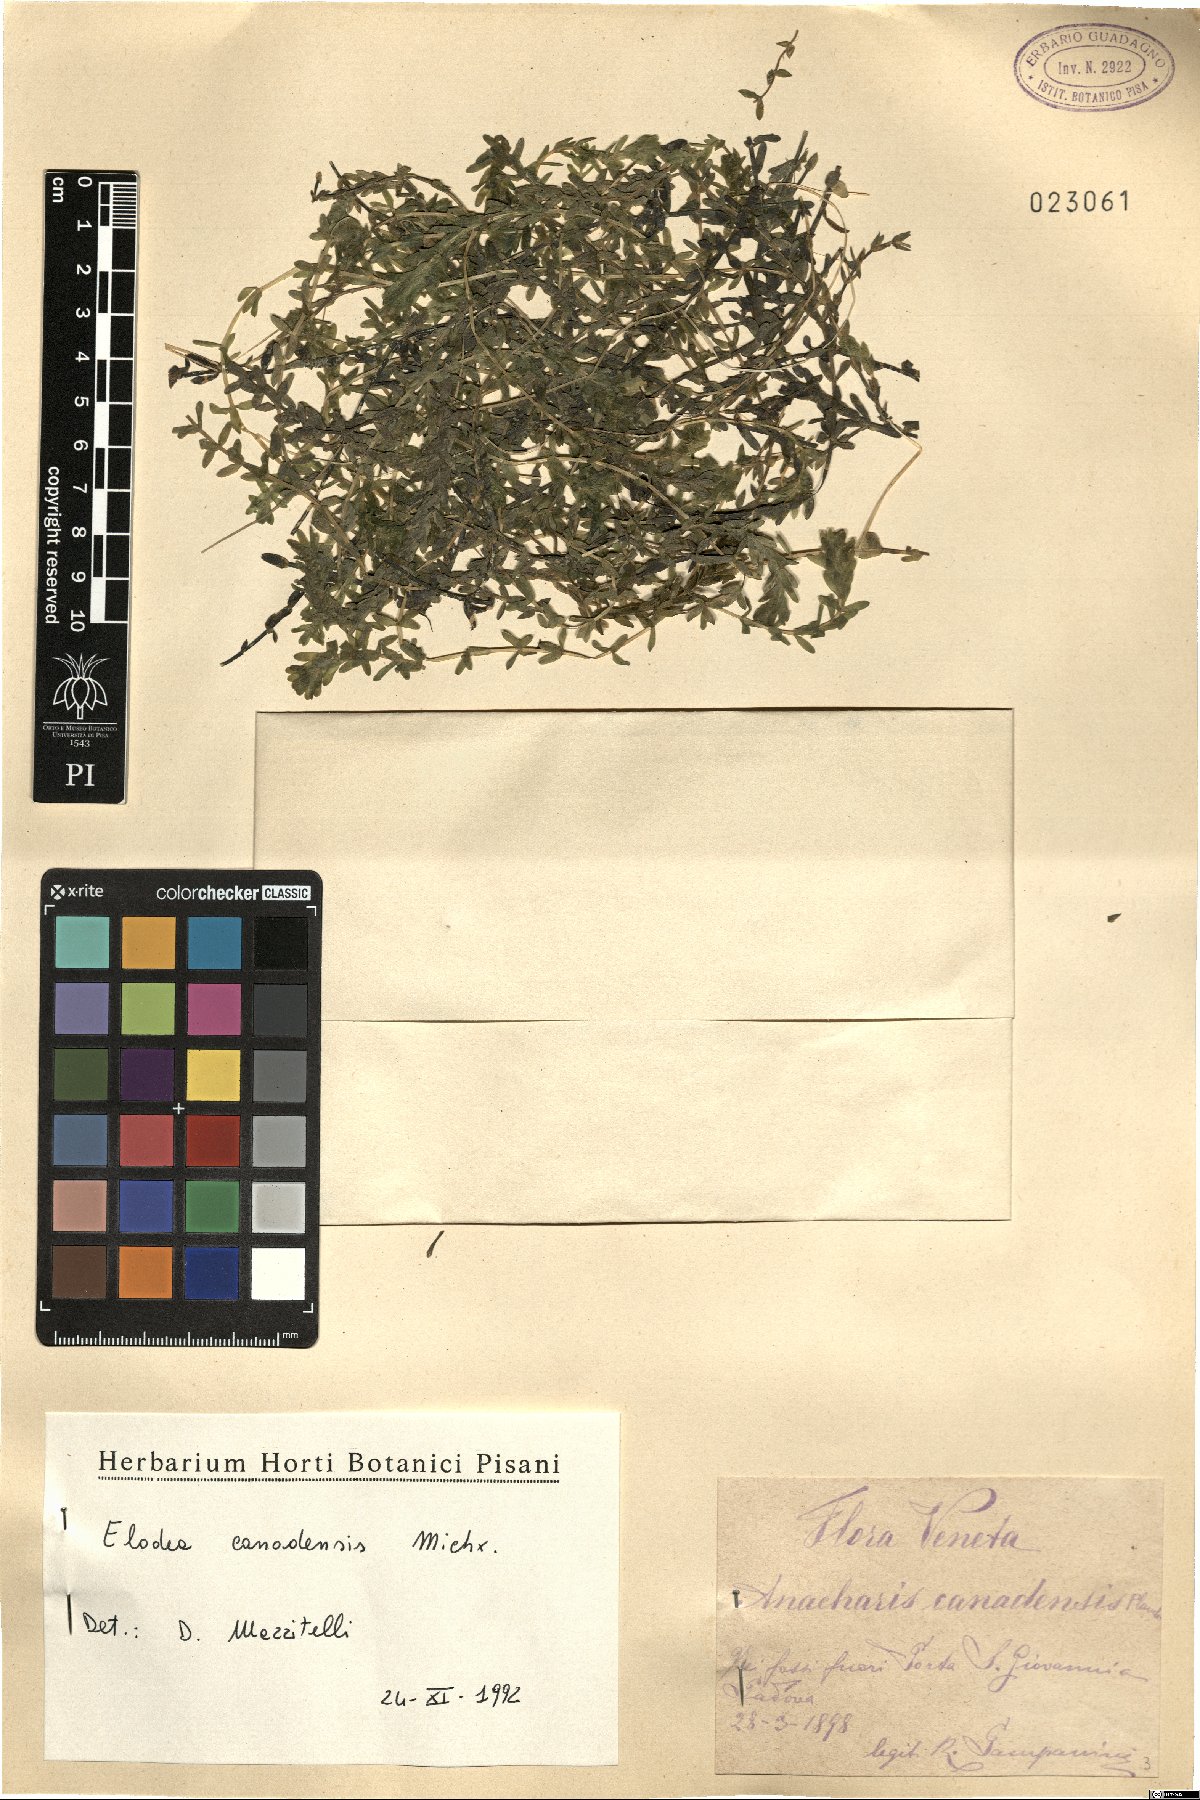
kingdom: Plantae
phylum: Tracheophyta
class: Liliopsida
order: Alismatales
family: Hydrocharitaceae
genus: Elodea
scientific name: Elodea canadensis
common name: Canadian waterweed
